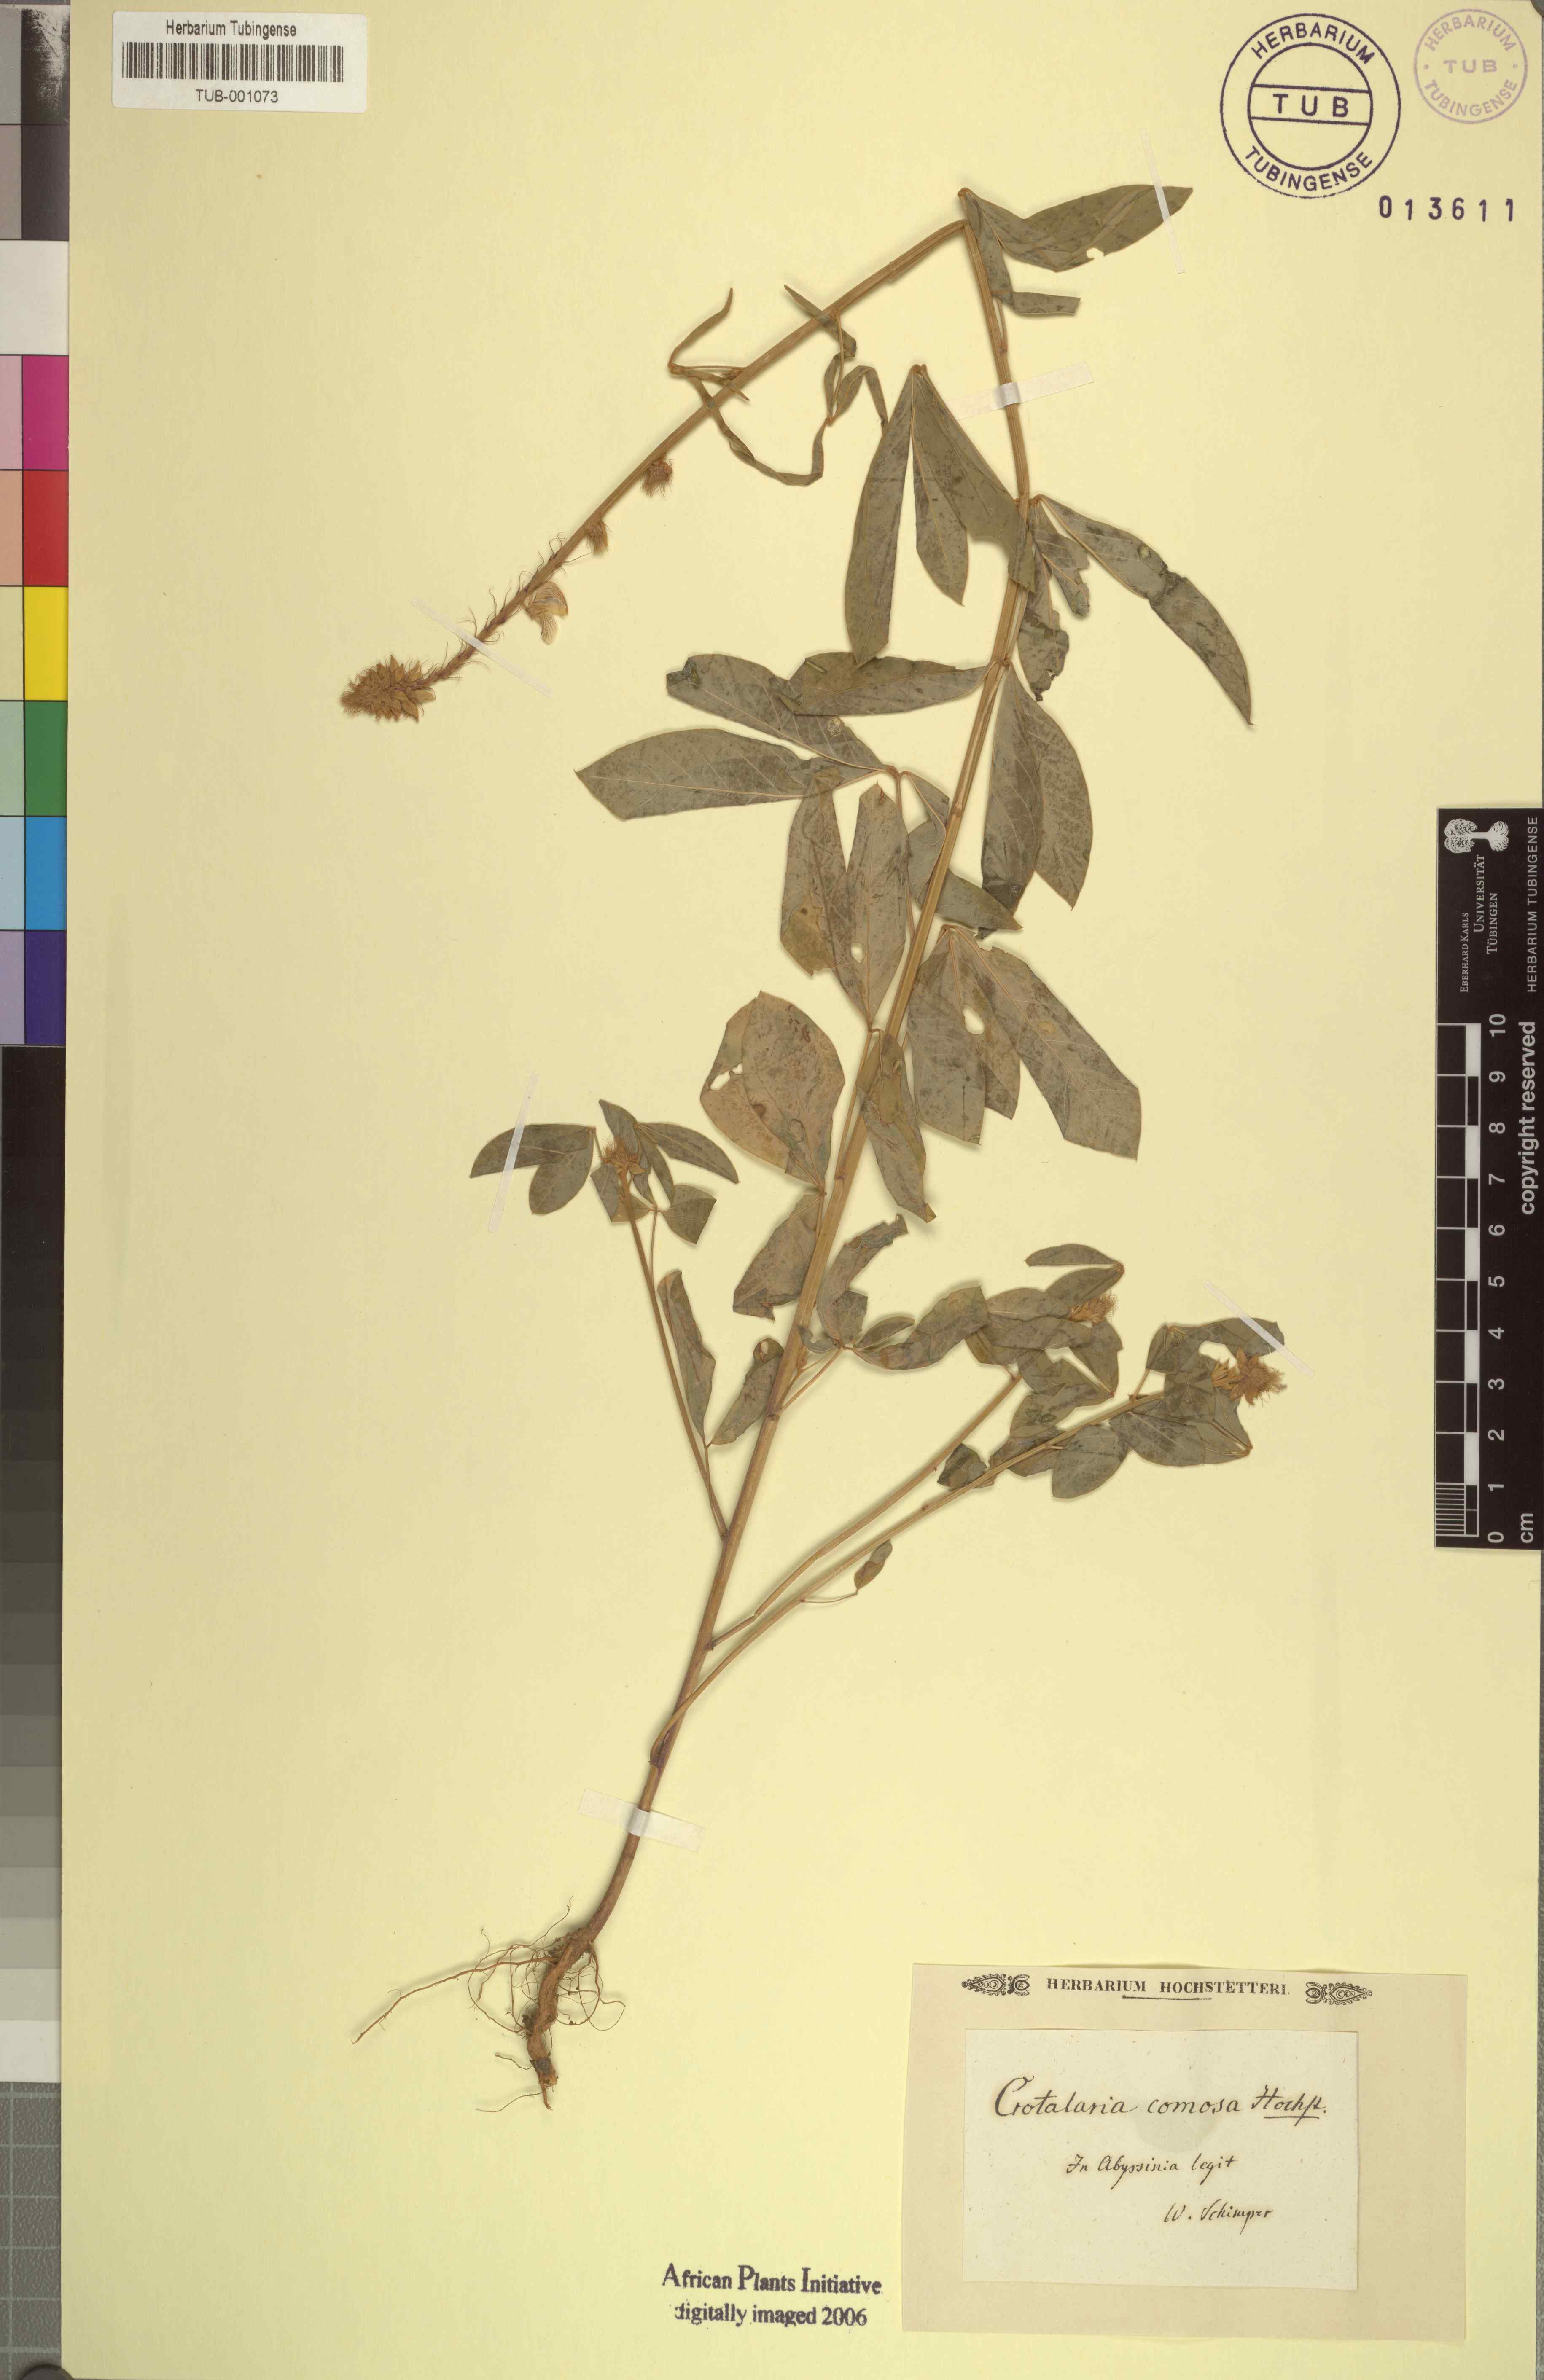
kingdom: Plantae
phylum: Tracheophyta
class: Magnoliopsida
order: Fabales
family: Fabaceae
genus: Crotalaria
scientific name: Crotalaria comosa
